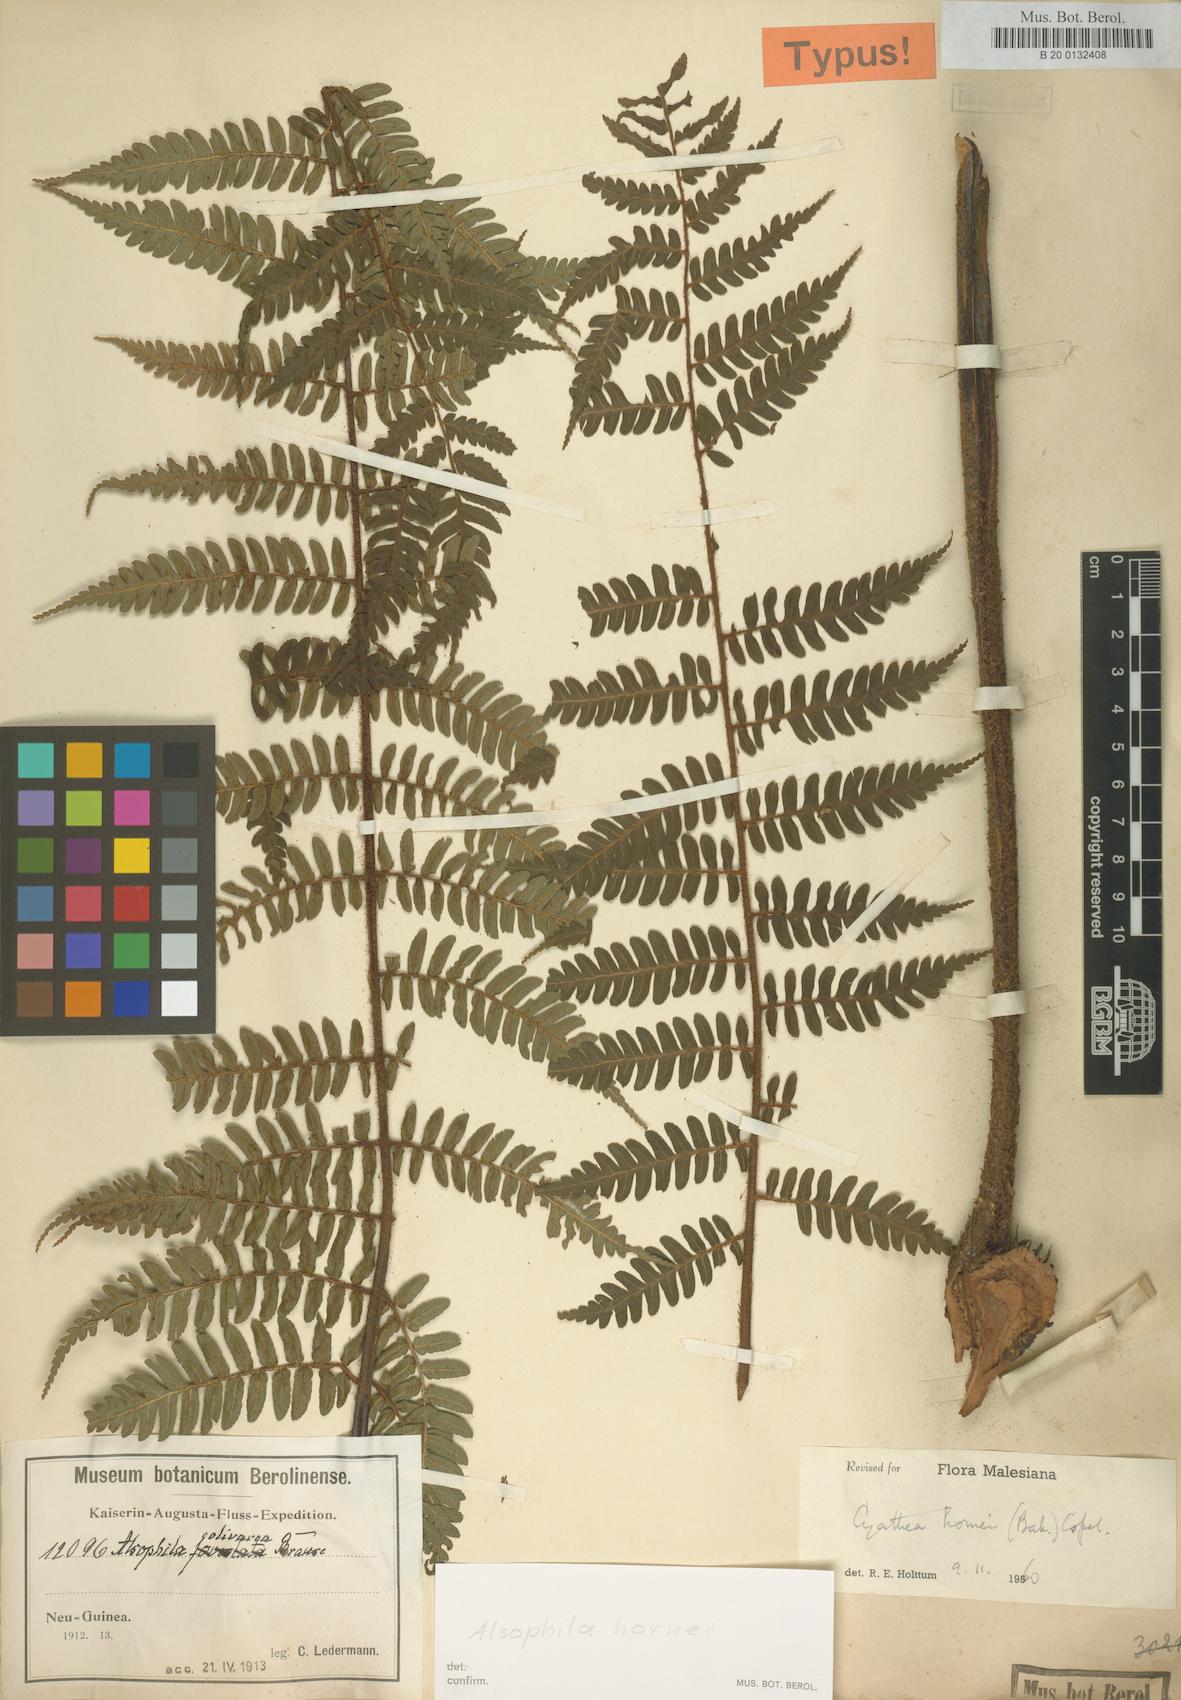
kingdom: Plantae
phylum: Tracheophyta
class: Polypodiopsida
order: Cyatheales
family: Cyatheaceae
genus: Gymnosphaera
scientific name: Gymnosphaera hornei
